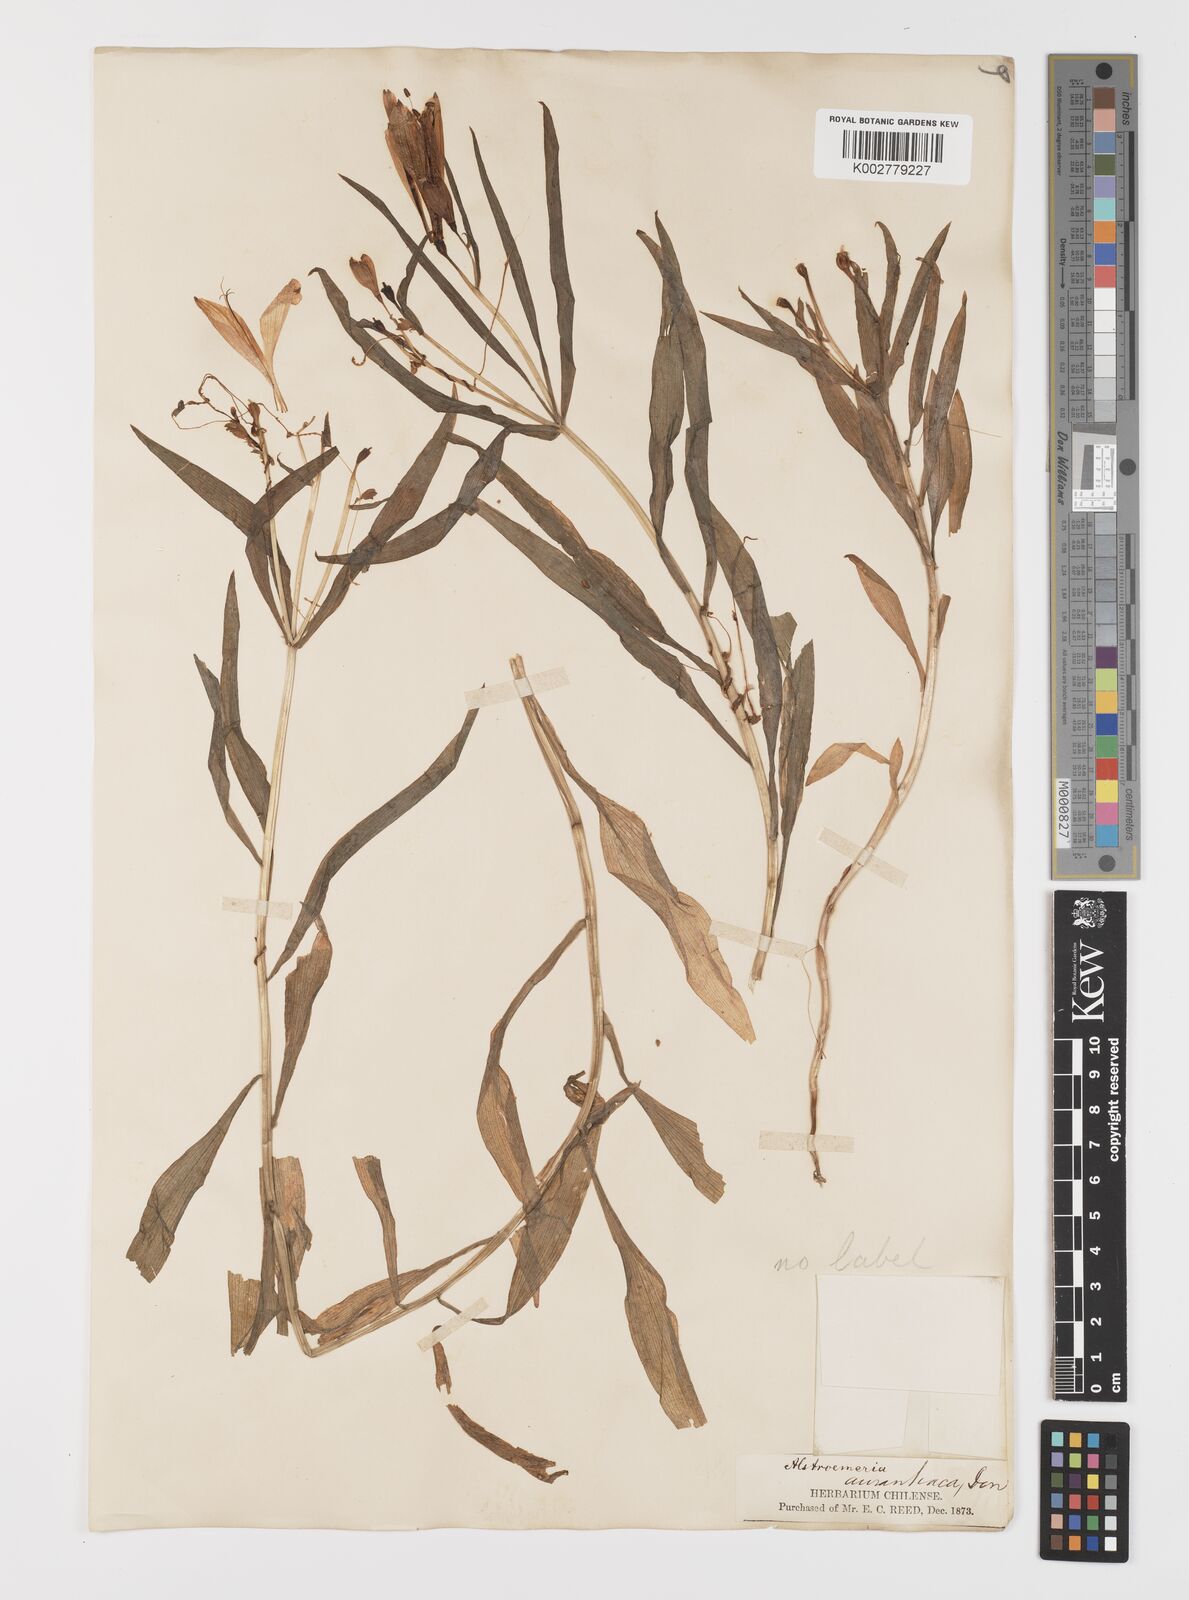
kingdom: Plantae
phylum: Tracheophyta
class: Liliopsida
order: Liliales
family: Alstroemeriaceae
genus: Alstroemeria
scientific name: Alstroemeria aurea
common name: Peruvian lily
